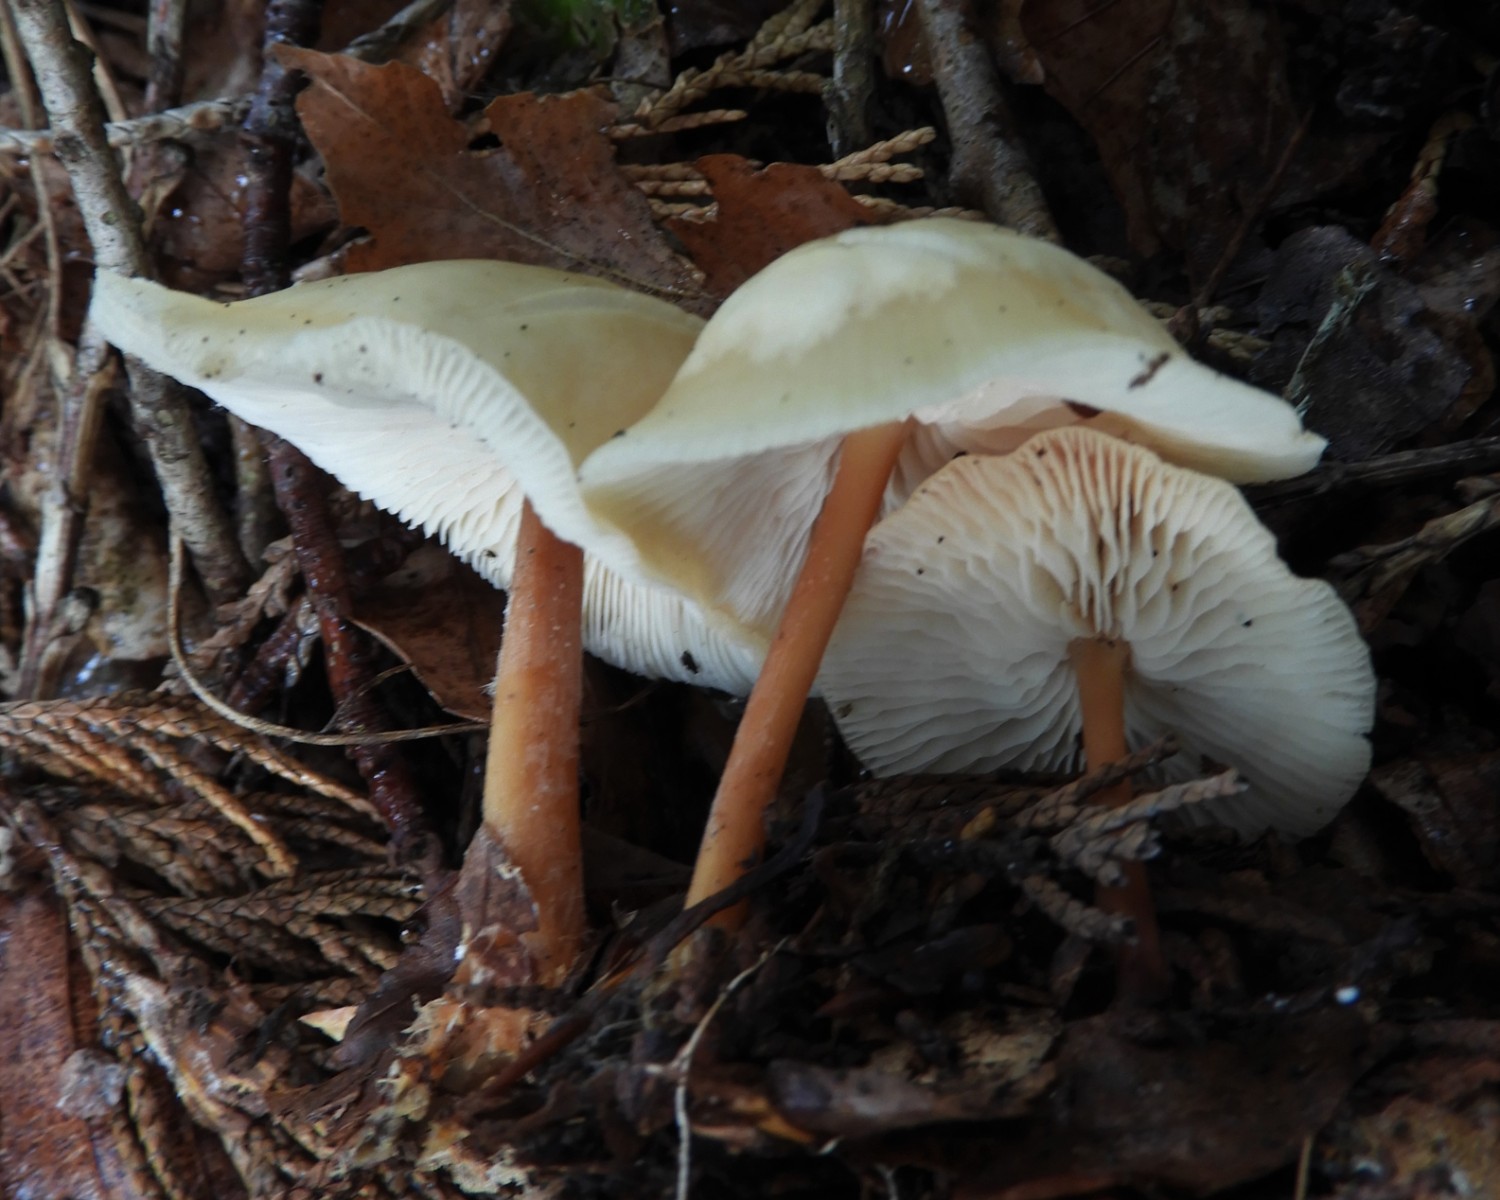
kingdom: Fungi
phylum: Basidiomycota
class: Agaricomycetes
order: Agaricales
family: Omphalotaceae
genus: Gymnopus
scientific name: Gymnopus
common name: fladhat
